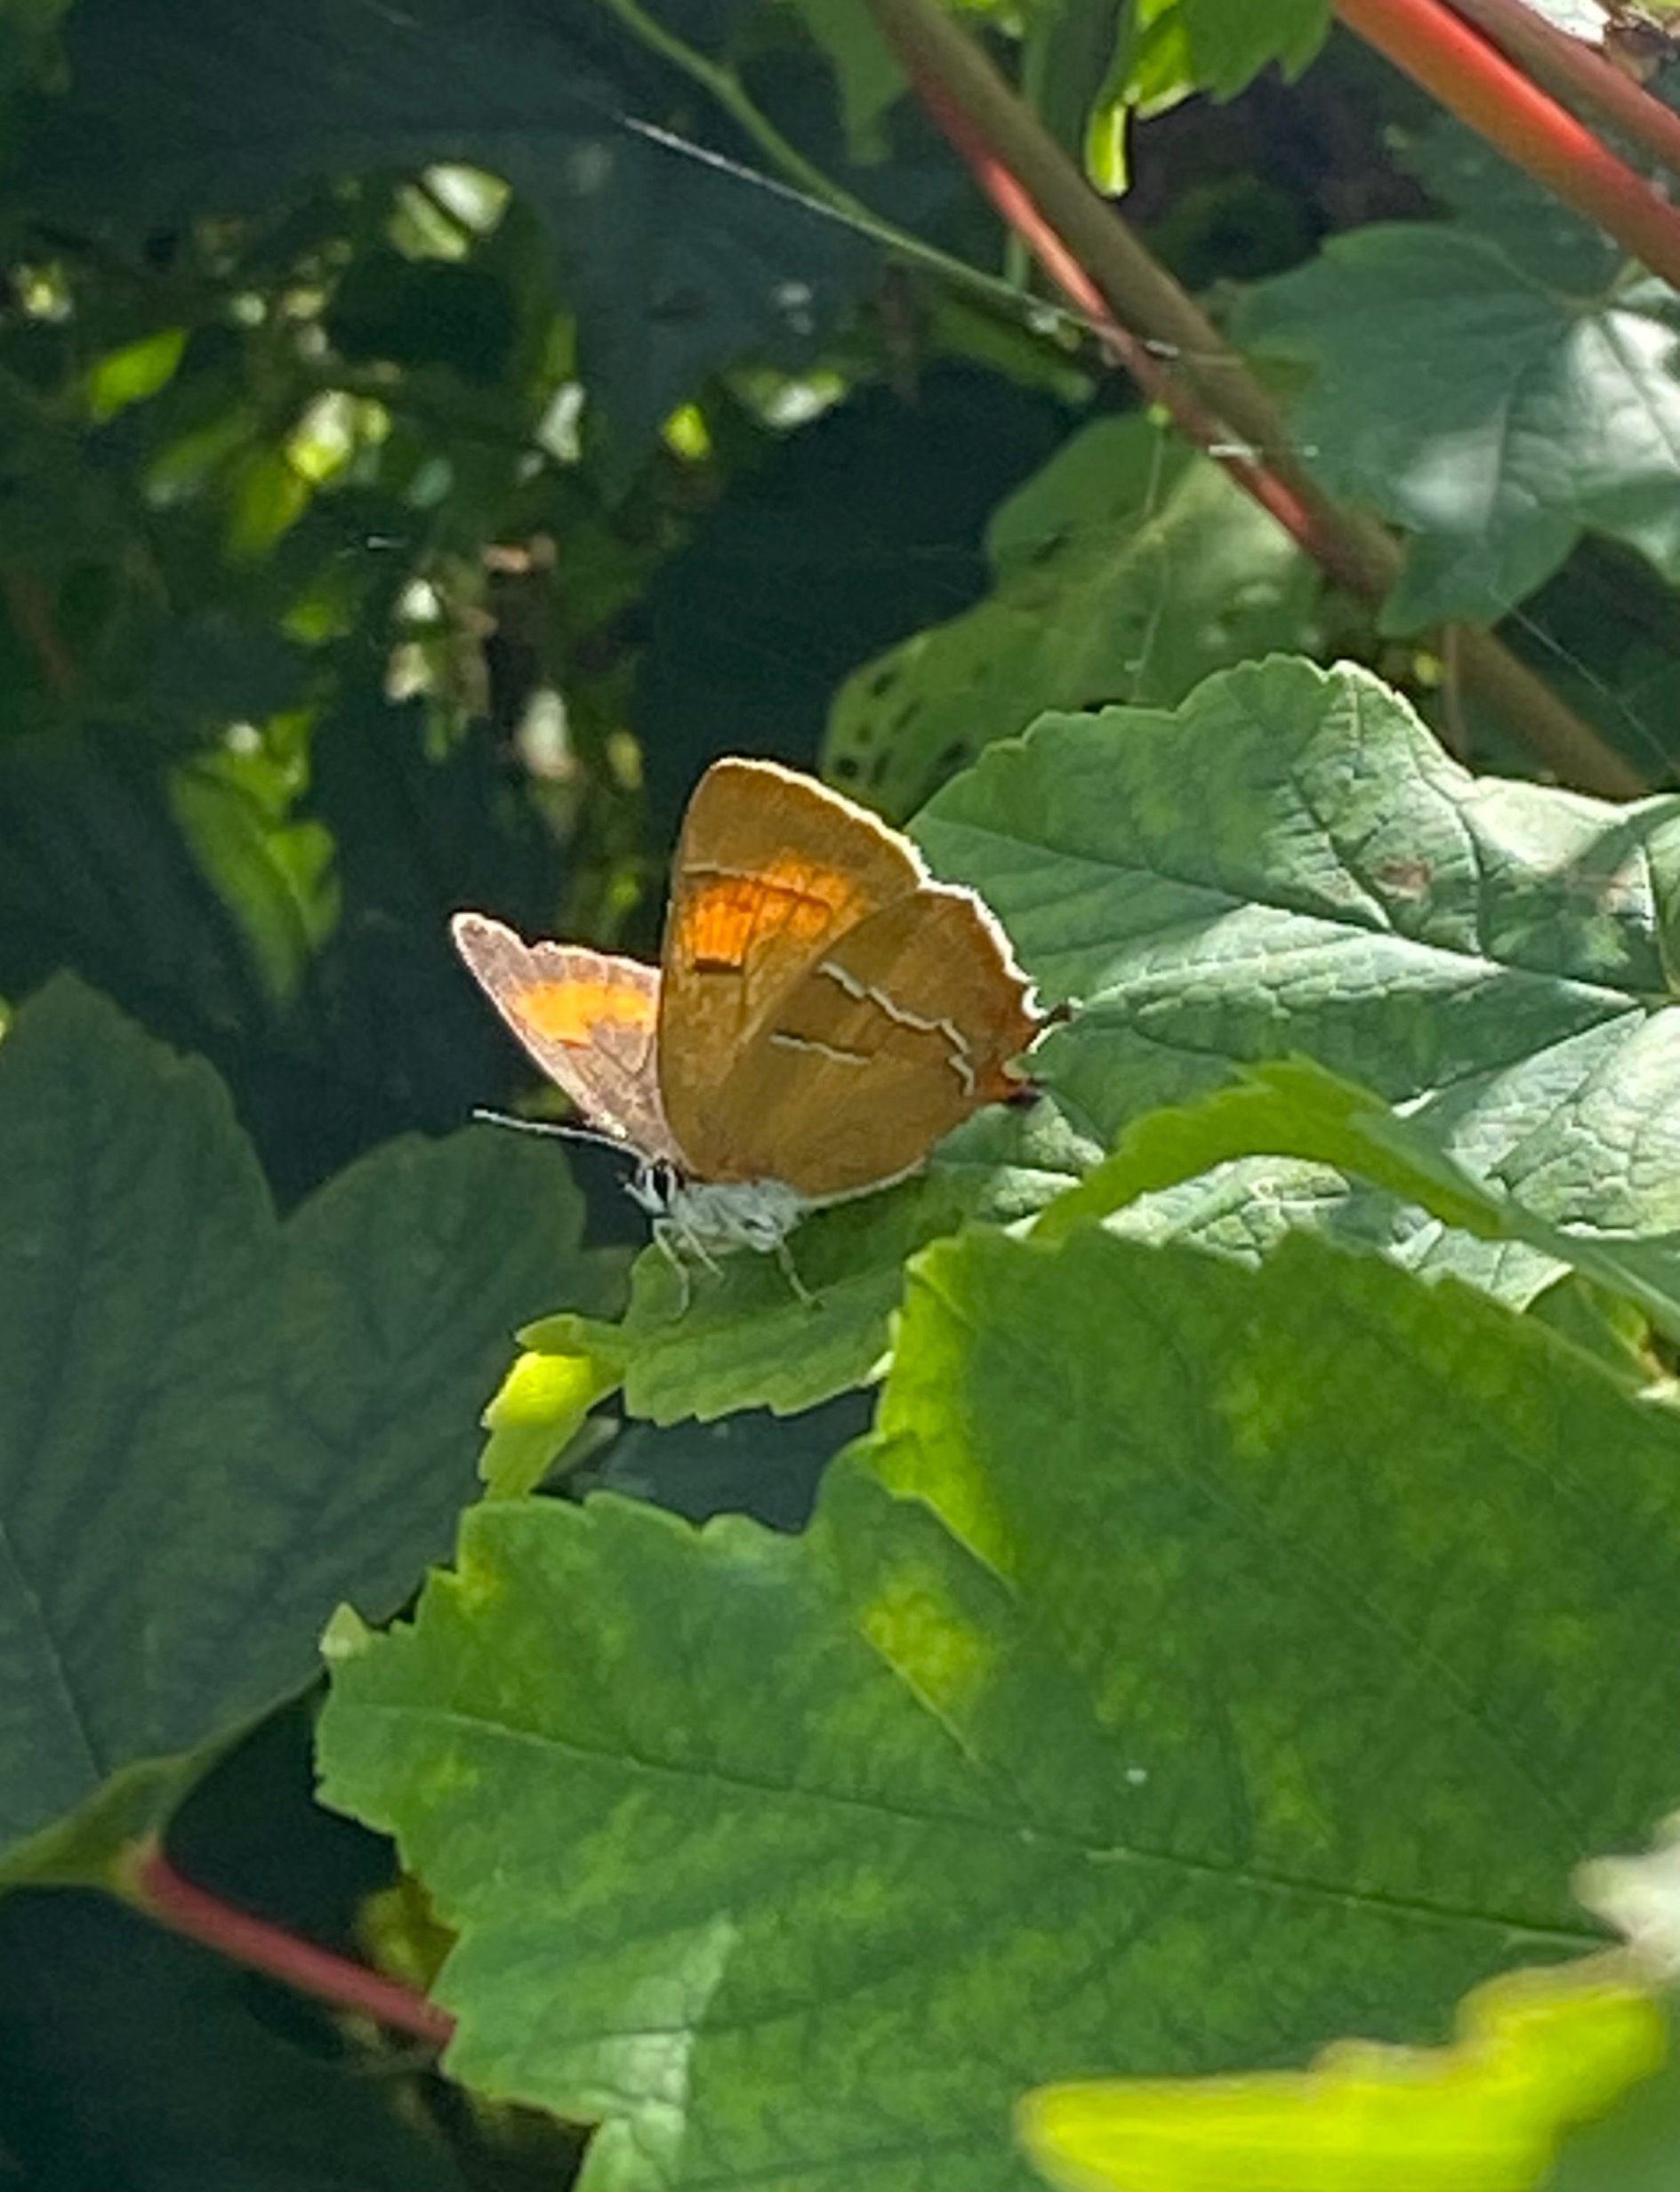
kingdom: Animalia
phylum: Arthropoda
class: Insecta
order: Lepidoptera
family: Lycaenidae
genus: Thecla
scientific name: Thecla betulae
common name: Guldhale
